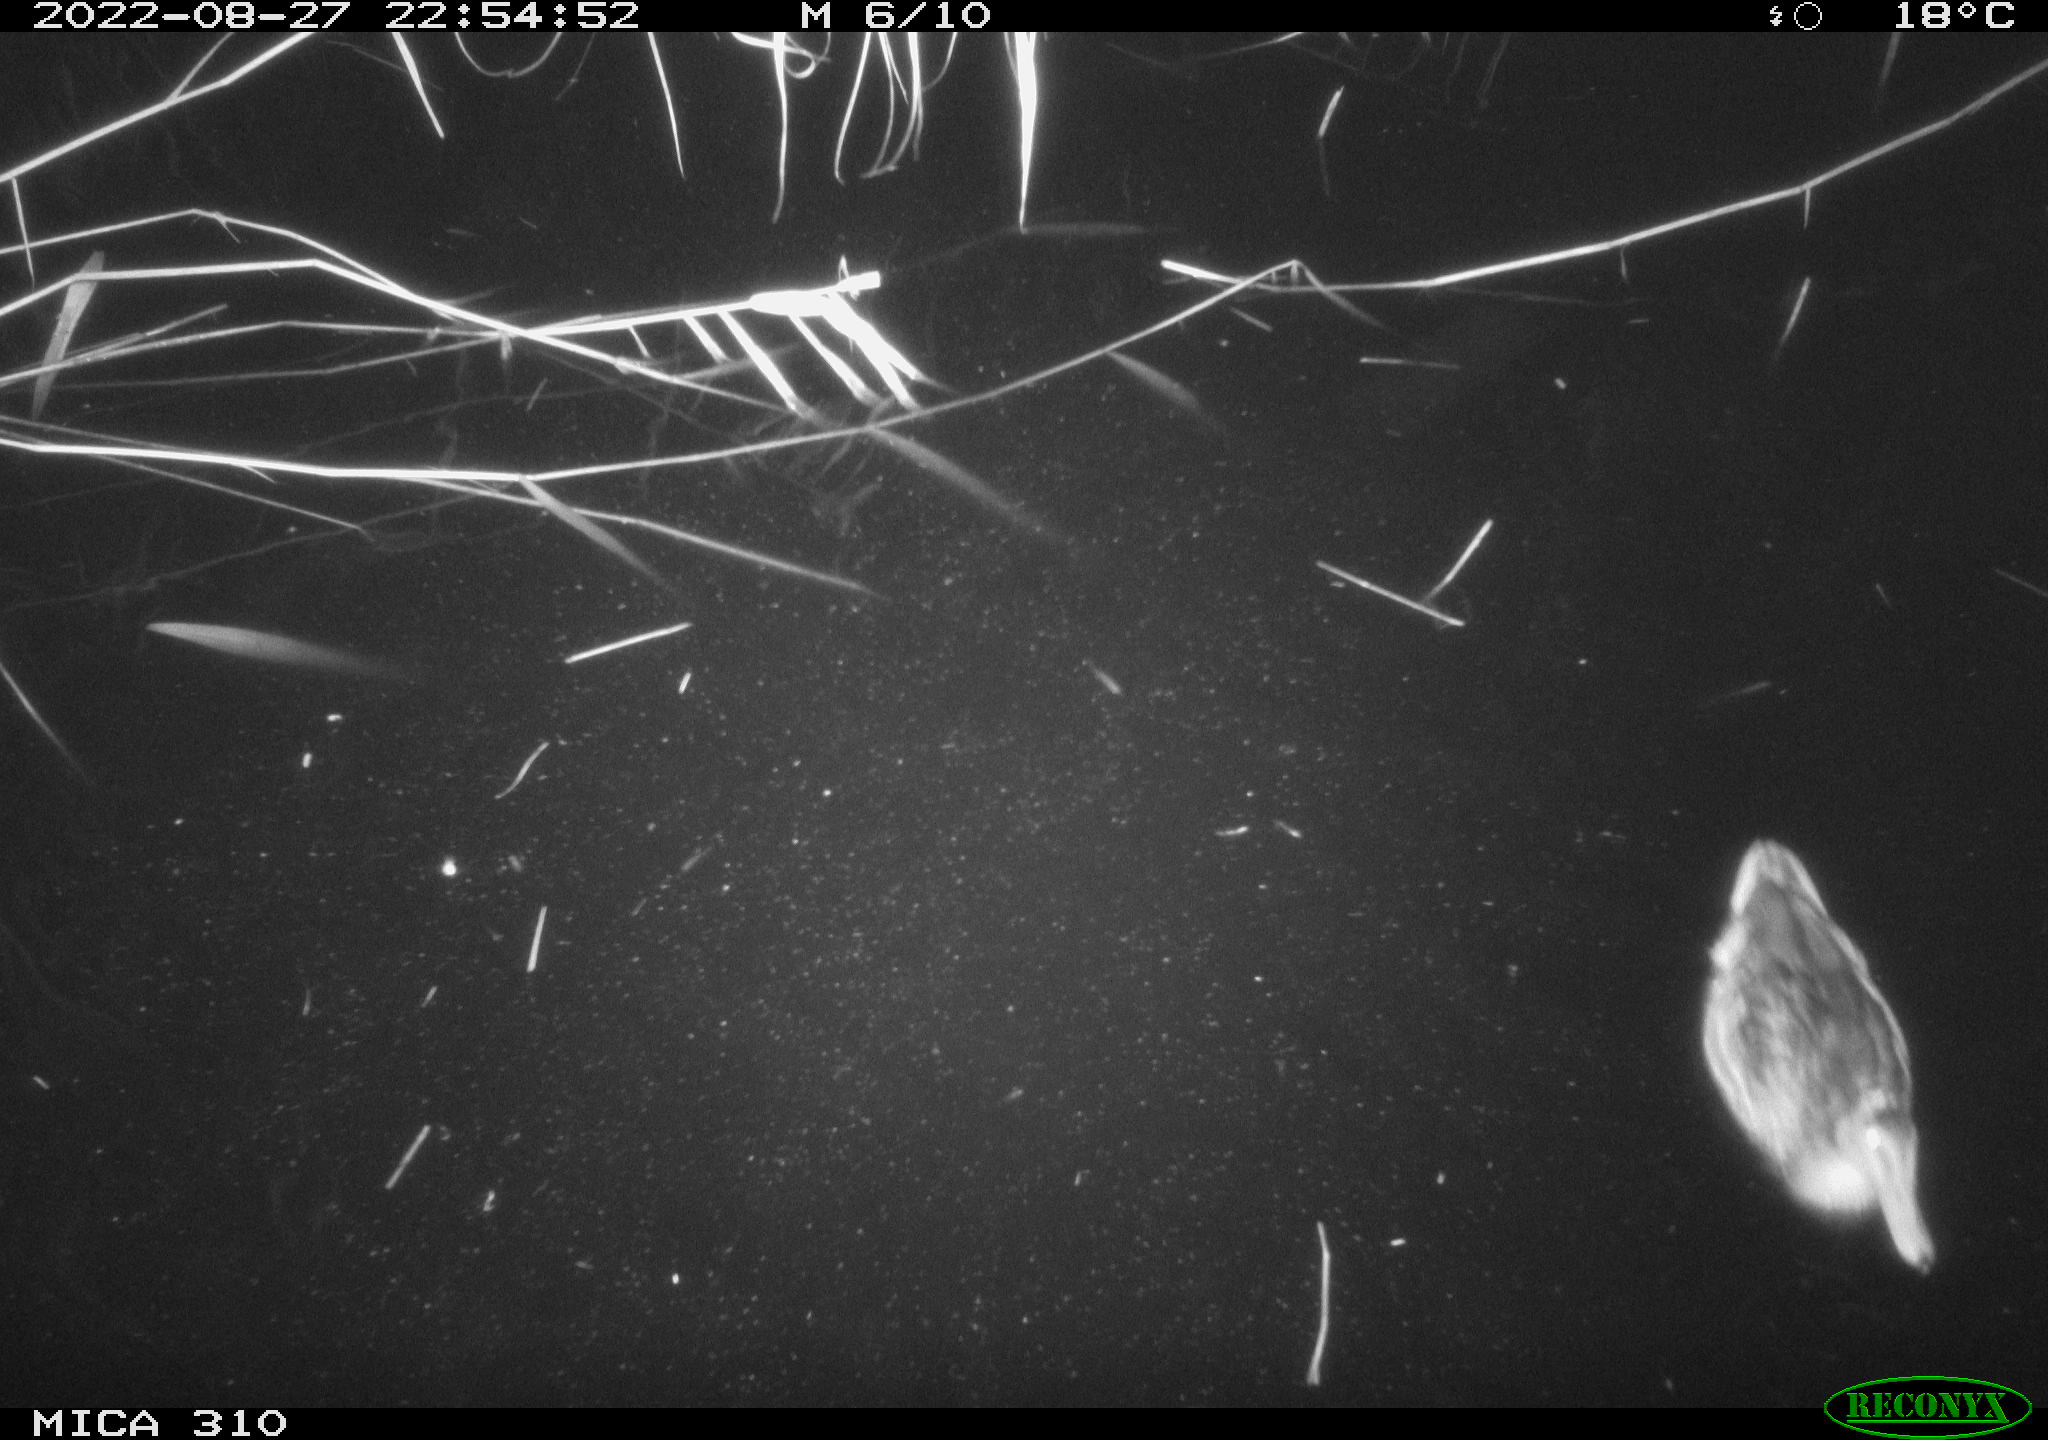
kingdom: Animalia
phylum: Chordata
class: Aves
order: Anseriformes
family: Anatidae
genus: Anas
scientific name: Anas platyrhynchos
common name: Mallard
